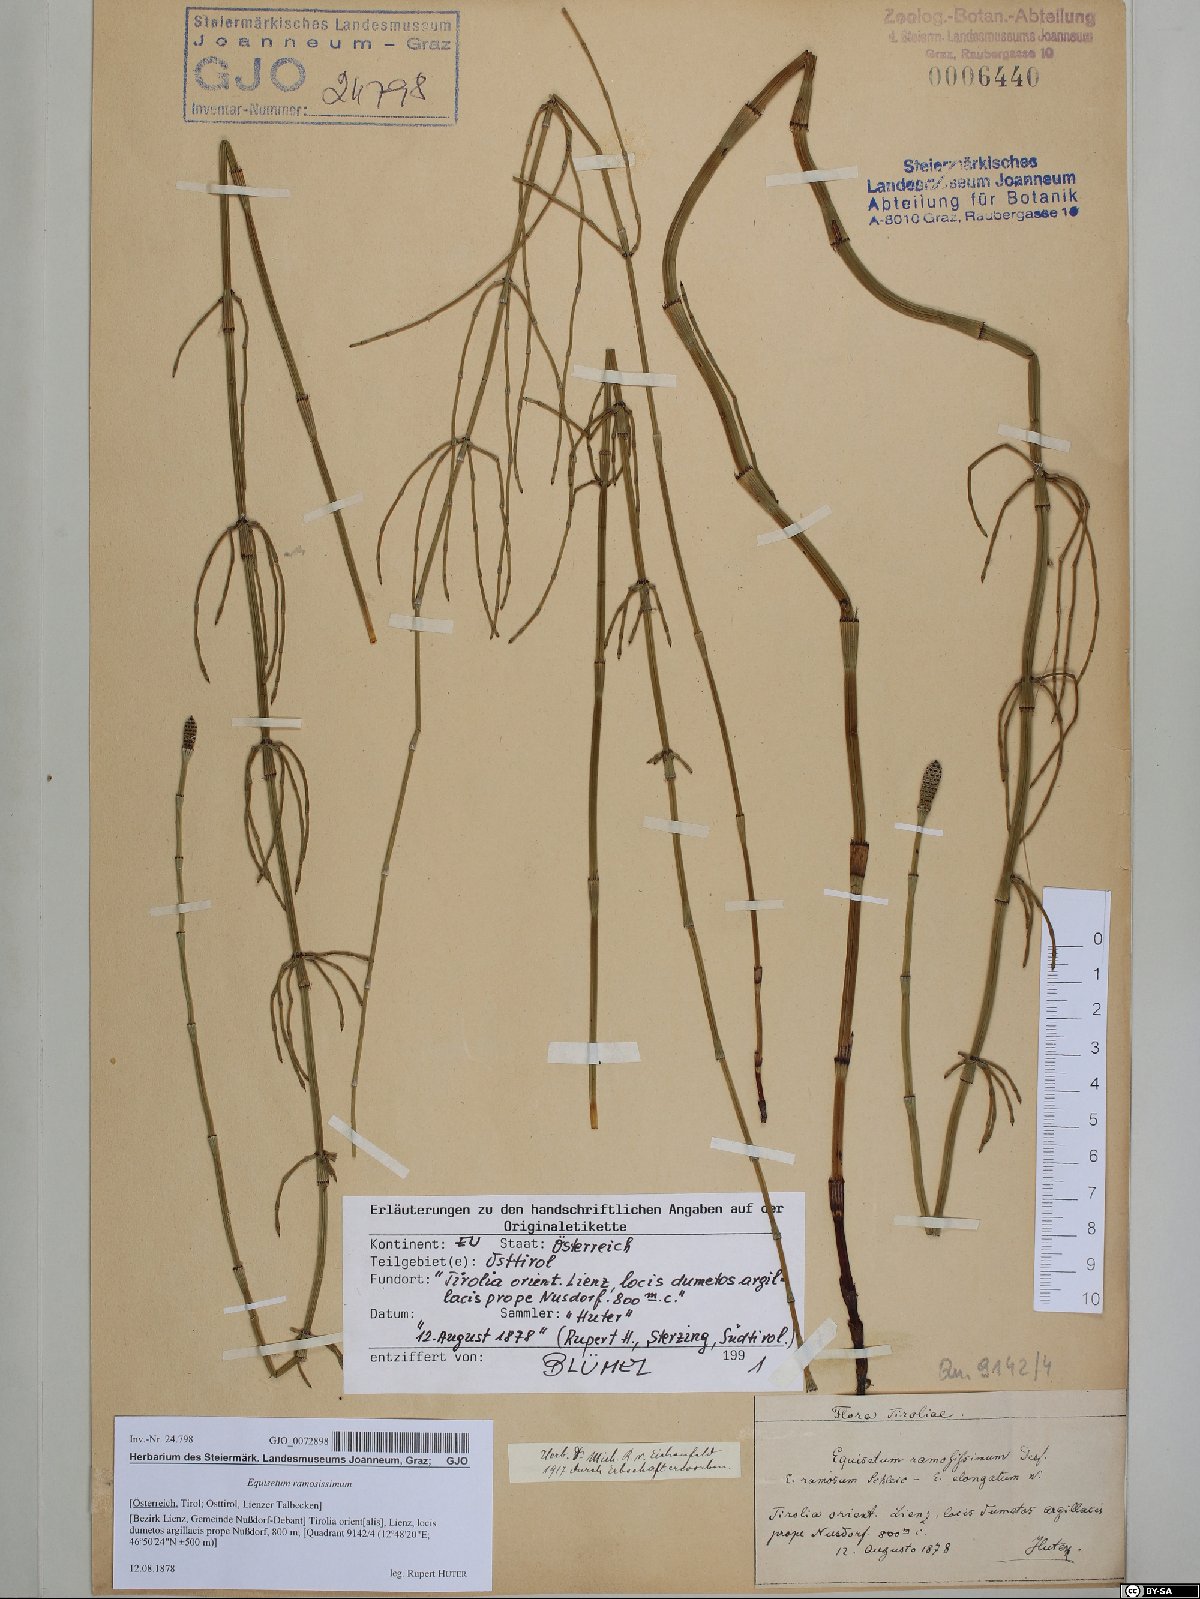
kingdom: Plantae
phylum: Tracheophyta
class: Polypodiopsida
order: Equisetales
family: Equisetaceae
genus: Equisetum
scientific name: Equisetum ramosissimum
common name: Branched horsetail
